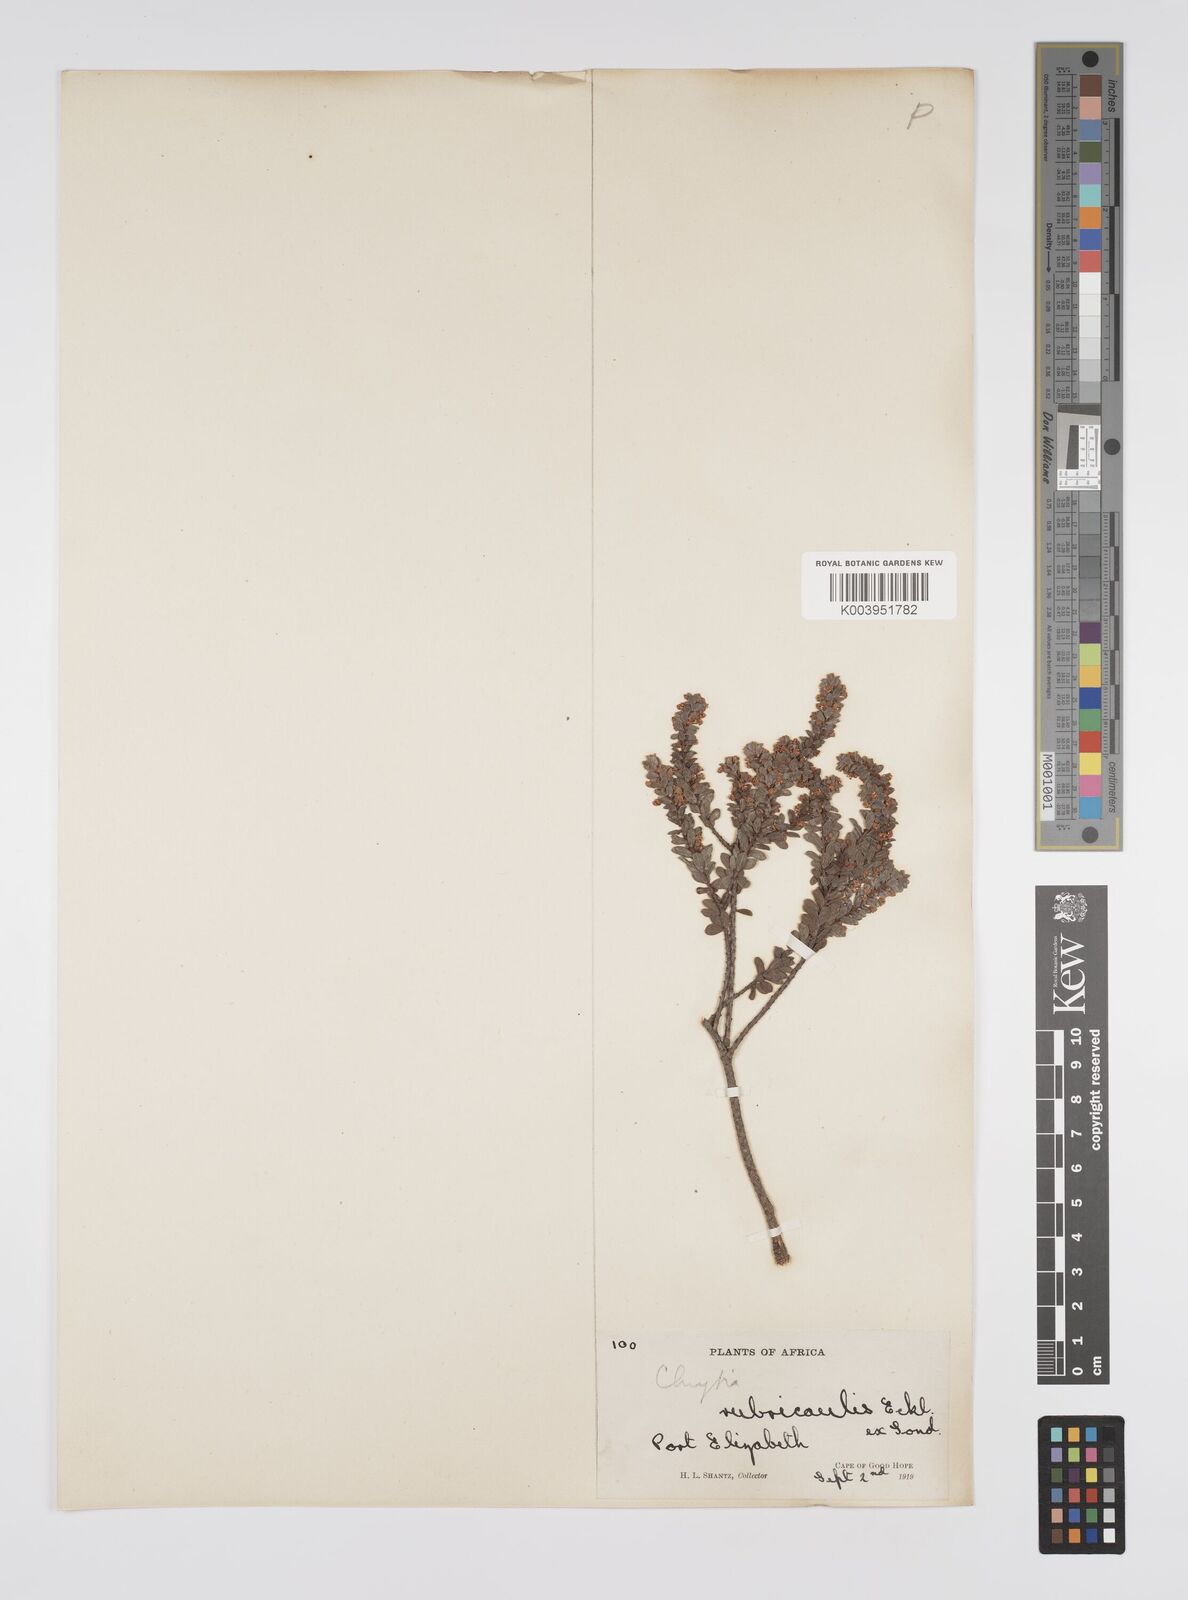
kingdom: Plantae
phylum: Tracheophyta
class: Magnoliopsida
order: Malpighiales
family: Peraceae
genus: Clutia
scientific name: Clutia rubricaulis
